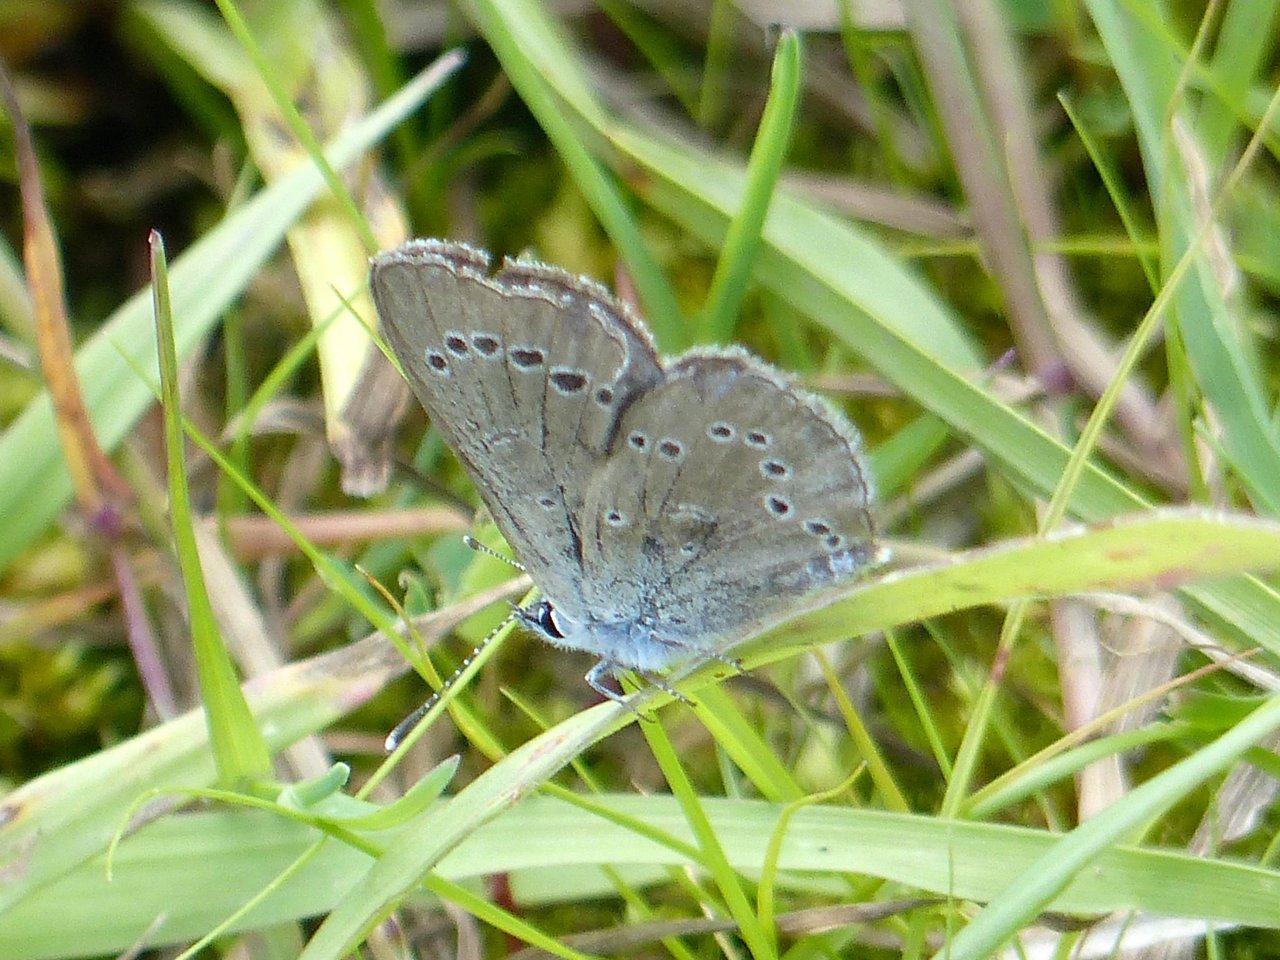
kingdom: Animalia
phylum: Arthropoda
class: Insecta
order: Lepidoptera
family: Lycaenidae
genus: Glaucopsyche
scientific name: Glaucopsyche lygdamus
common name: Silvery Blue
